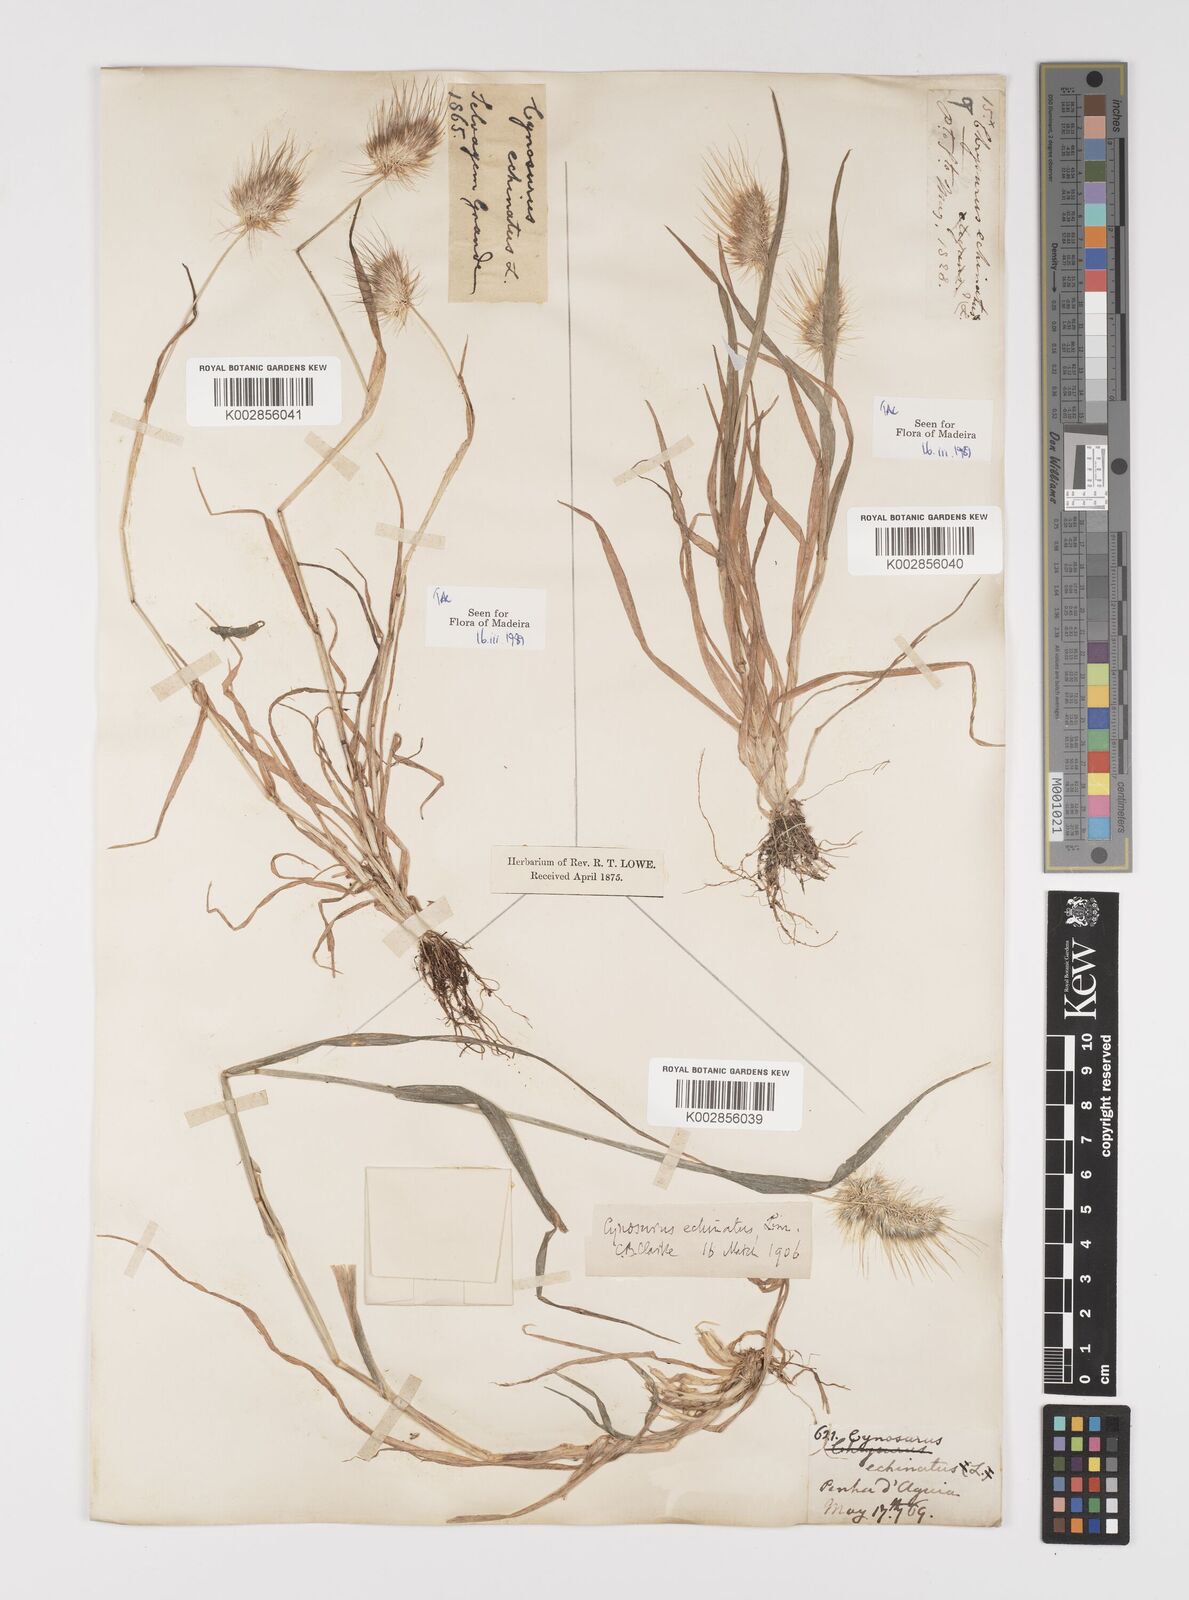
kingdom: Plantae
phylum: Tracheophyta
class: Liliopsida
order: Poales
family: Poaceae
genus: Cynosurus
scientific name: Cynosurus echinatus
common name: Rough dog's-tail
